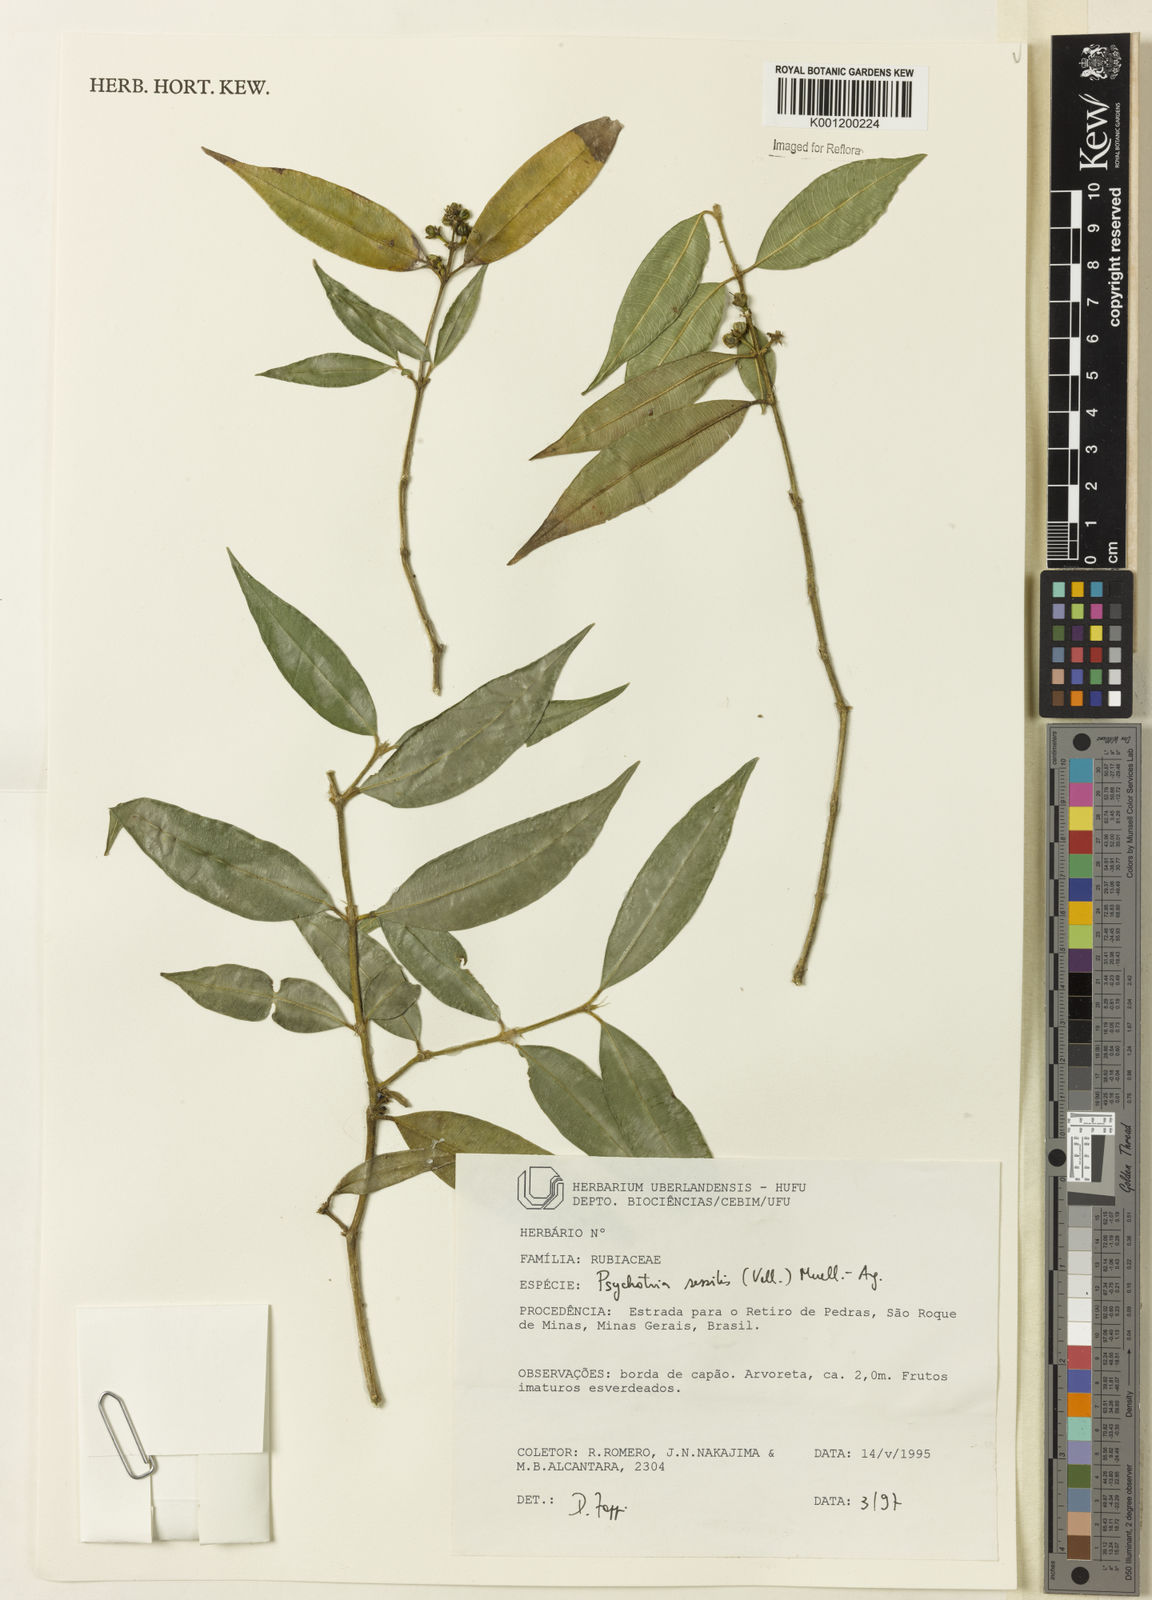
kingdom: Plantae
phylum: Tracheophyta
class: Magnoliopsida
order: Gentianales
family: Rubiaceae
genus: Rudgea
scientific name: Rudgea sessilis
